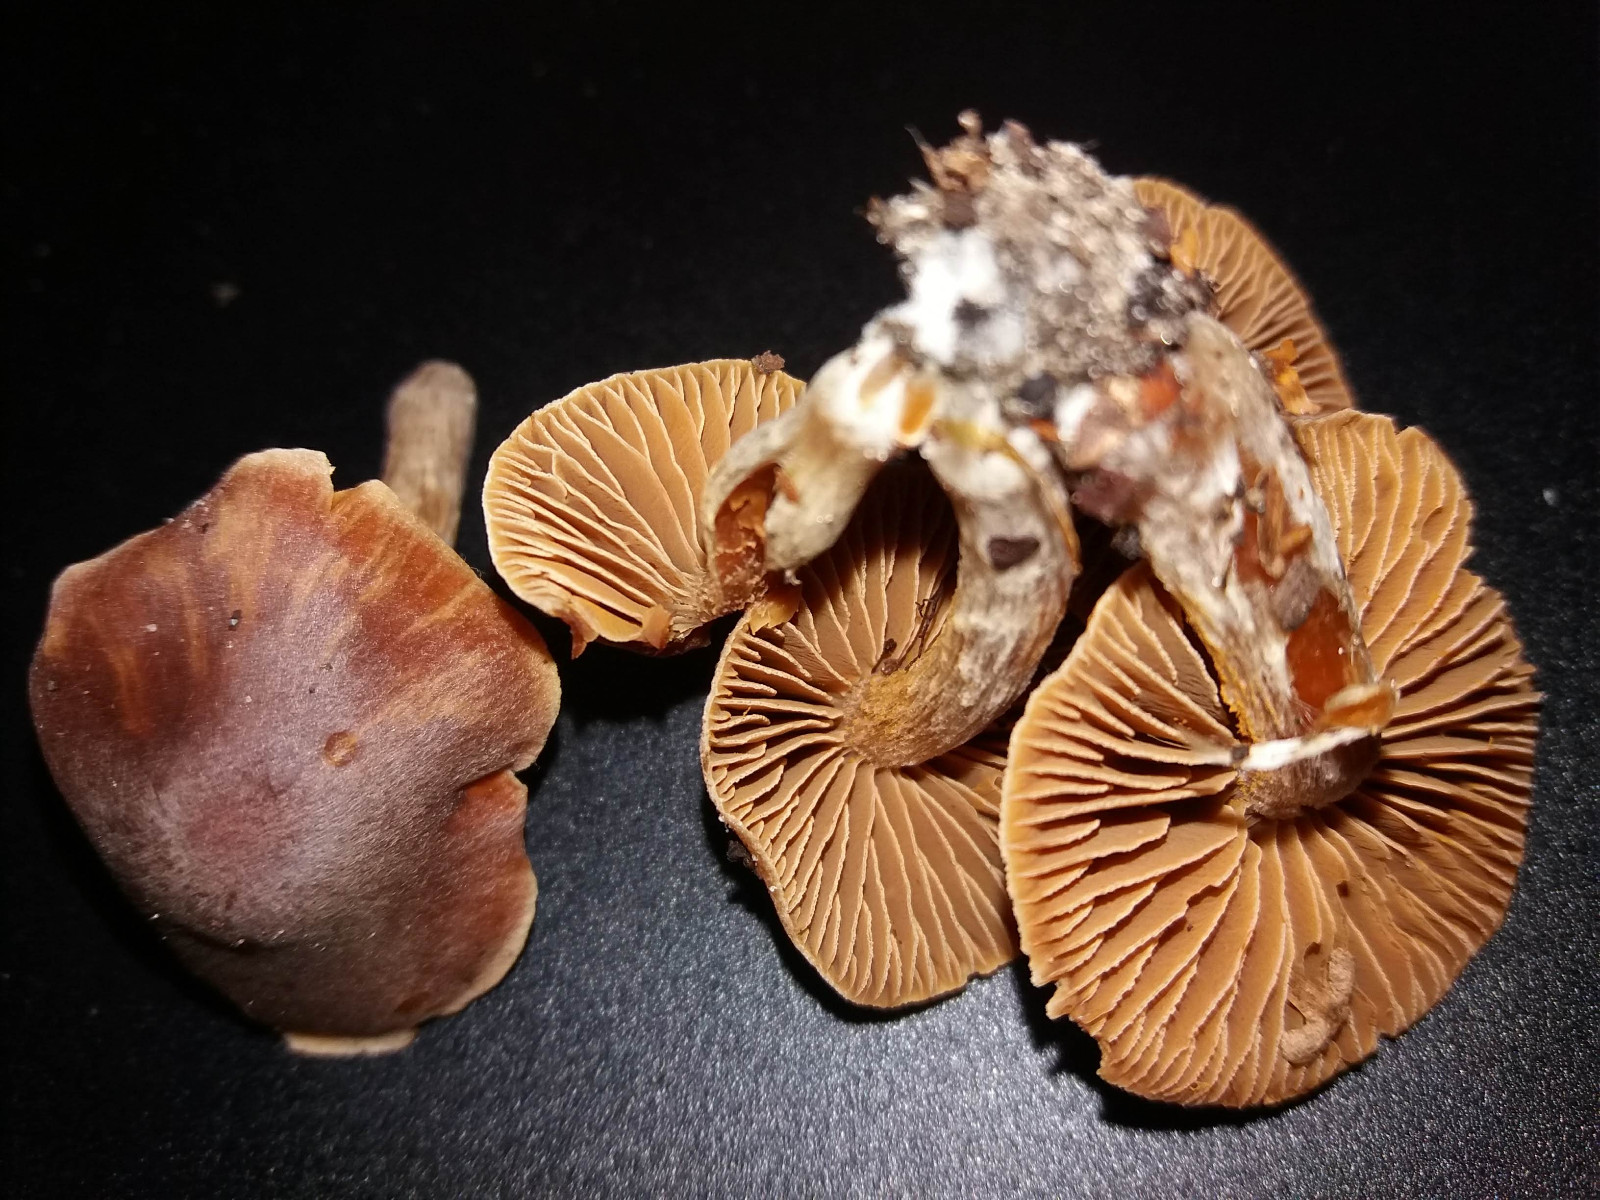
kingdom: Fungi
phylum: Basidiomycota
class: Agaricomycetes
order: Agaricales
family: Cortinariaceae
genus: Cortinarius
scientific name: Cortinarius
